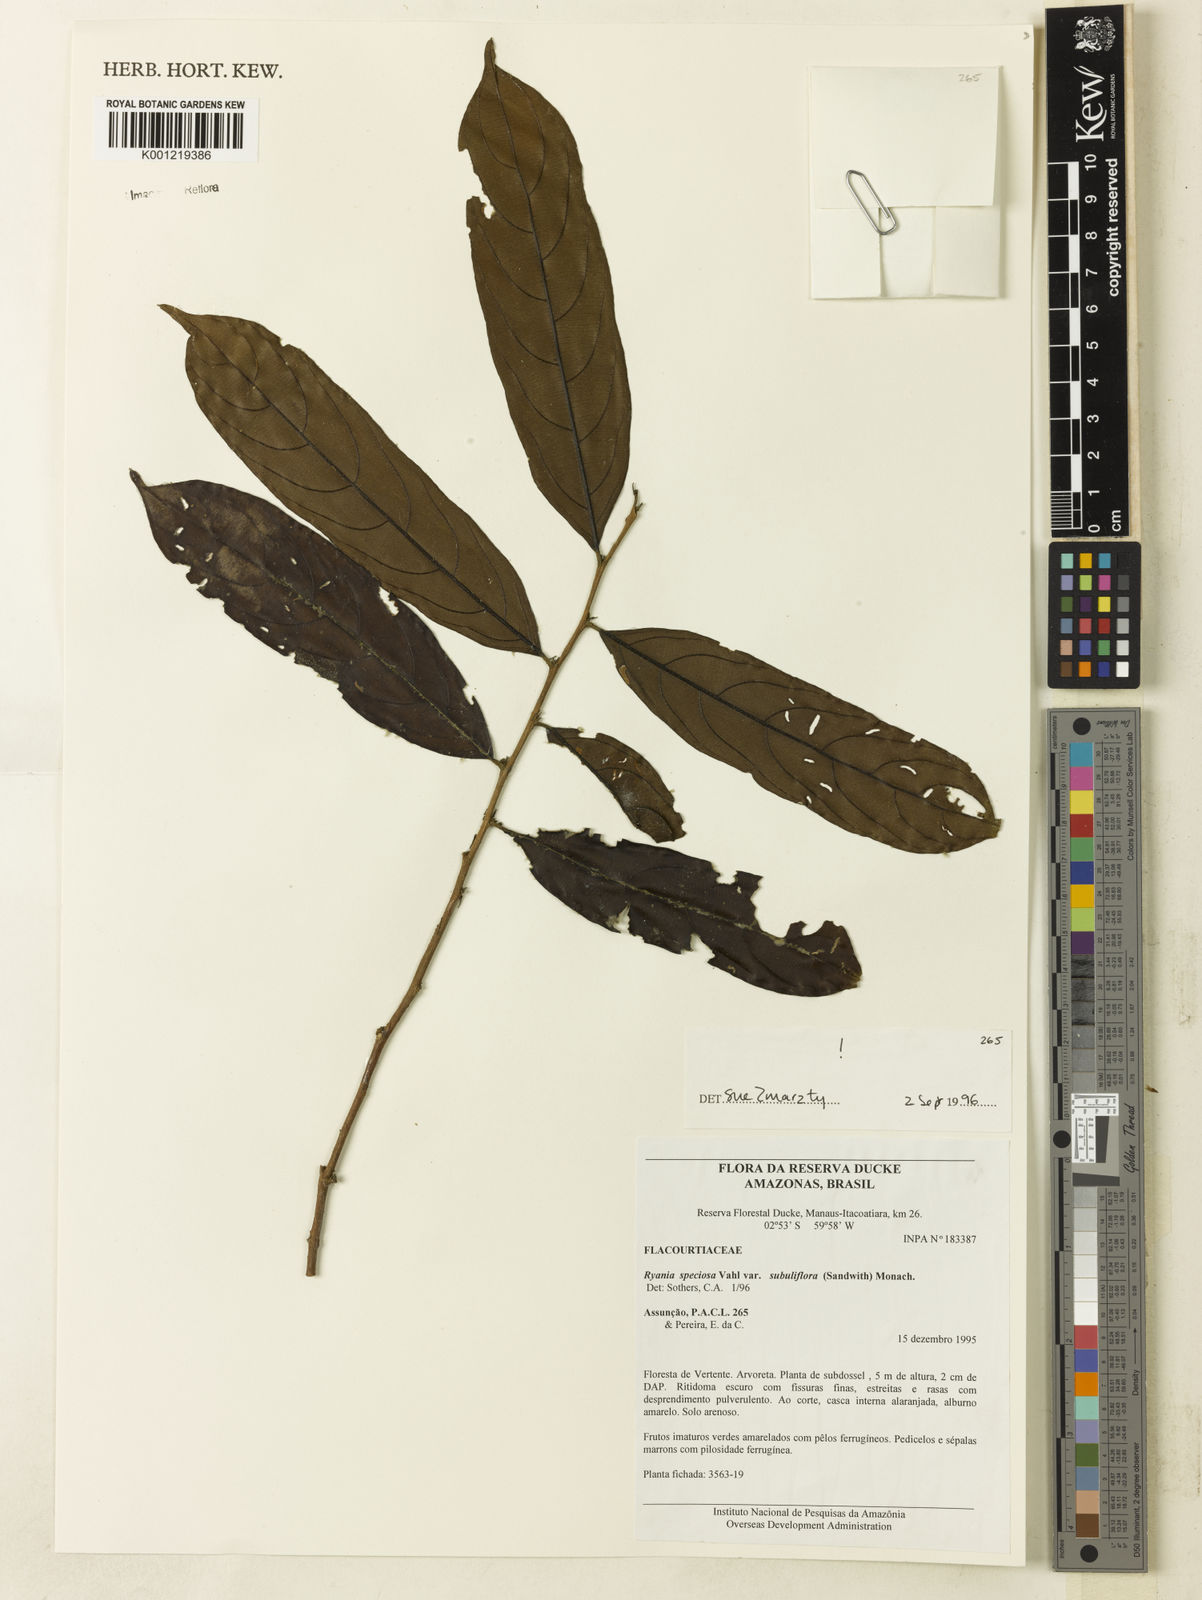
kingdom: Plantae
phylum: Tracheophyta
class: Magnoliopsida
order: Malpighiales
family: Salicaceae
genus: Ryania
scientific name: Ryania speciosa
